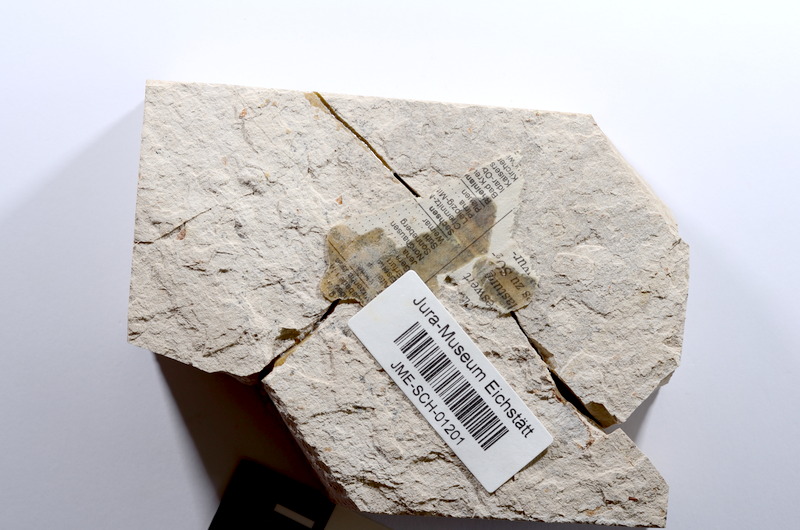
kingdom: Animalia
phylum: Chordata
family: Ascalaboidae
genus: Tharsis
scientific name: Tharsis dubius
